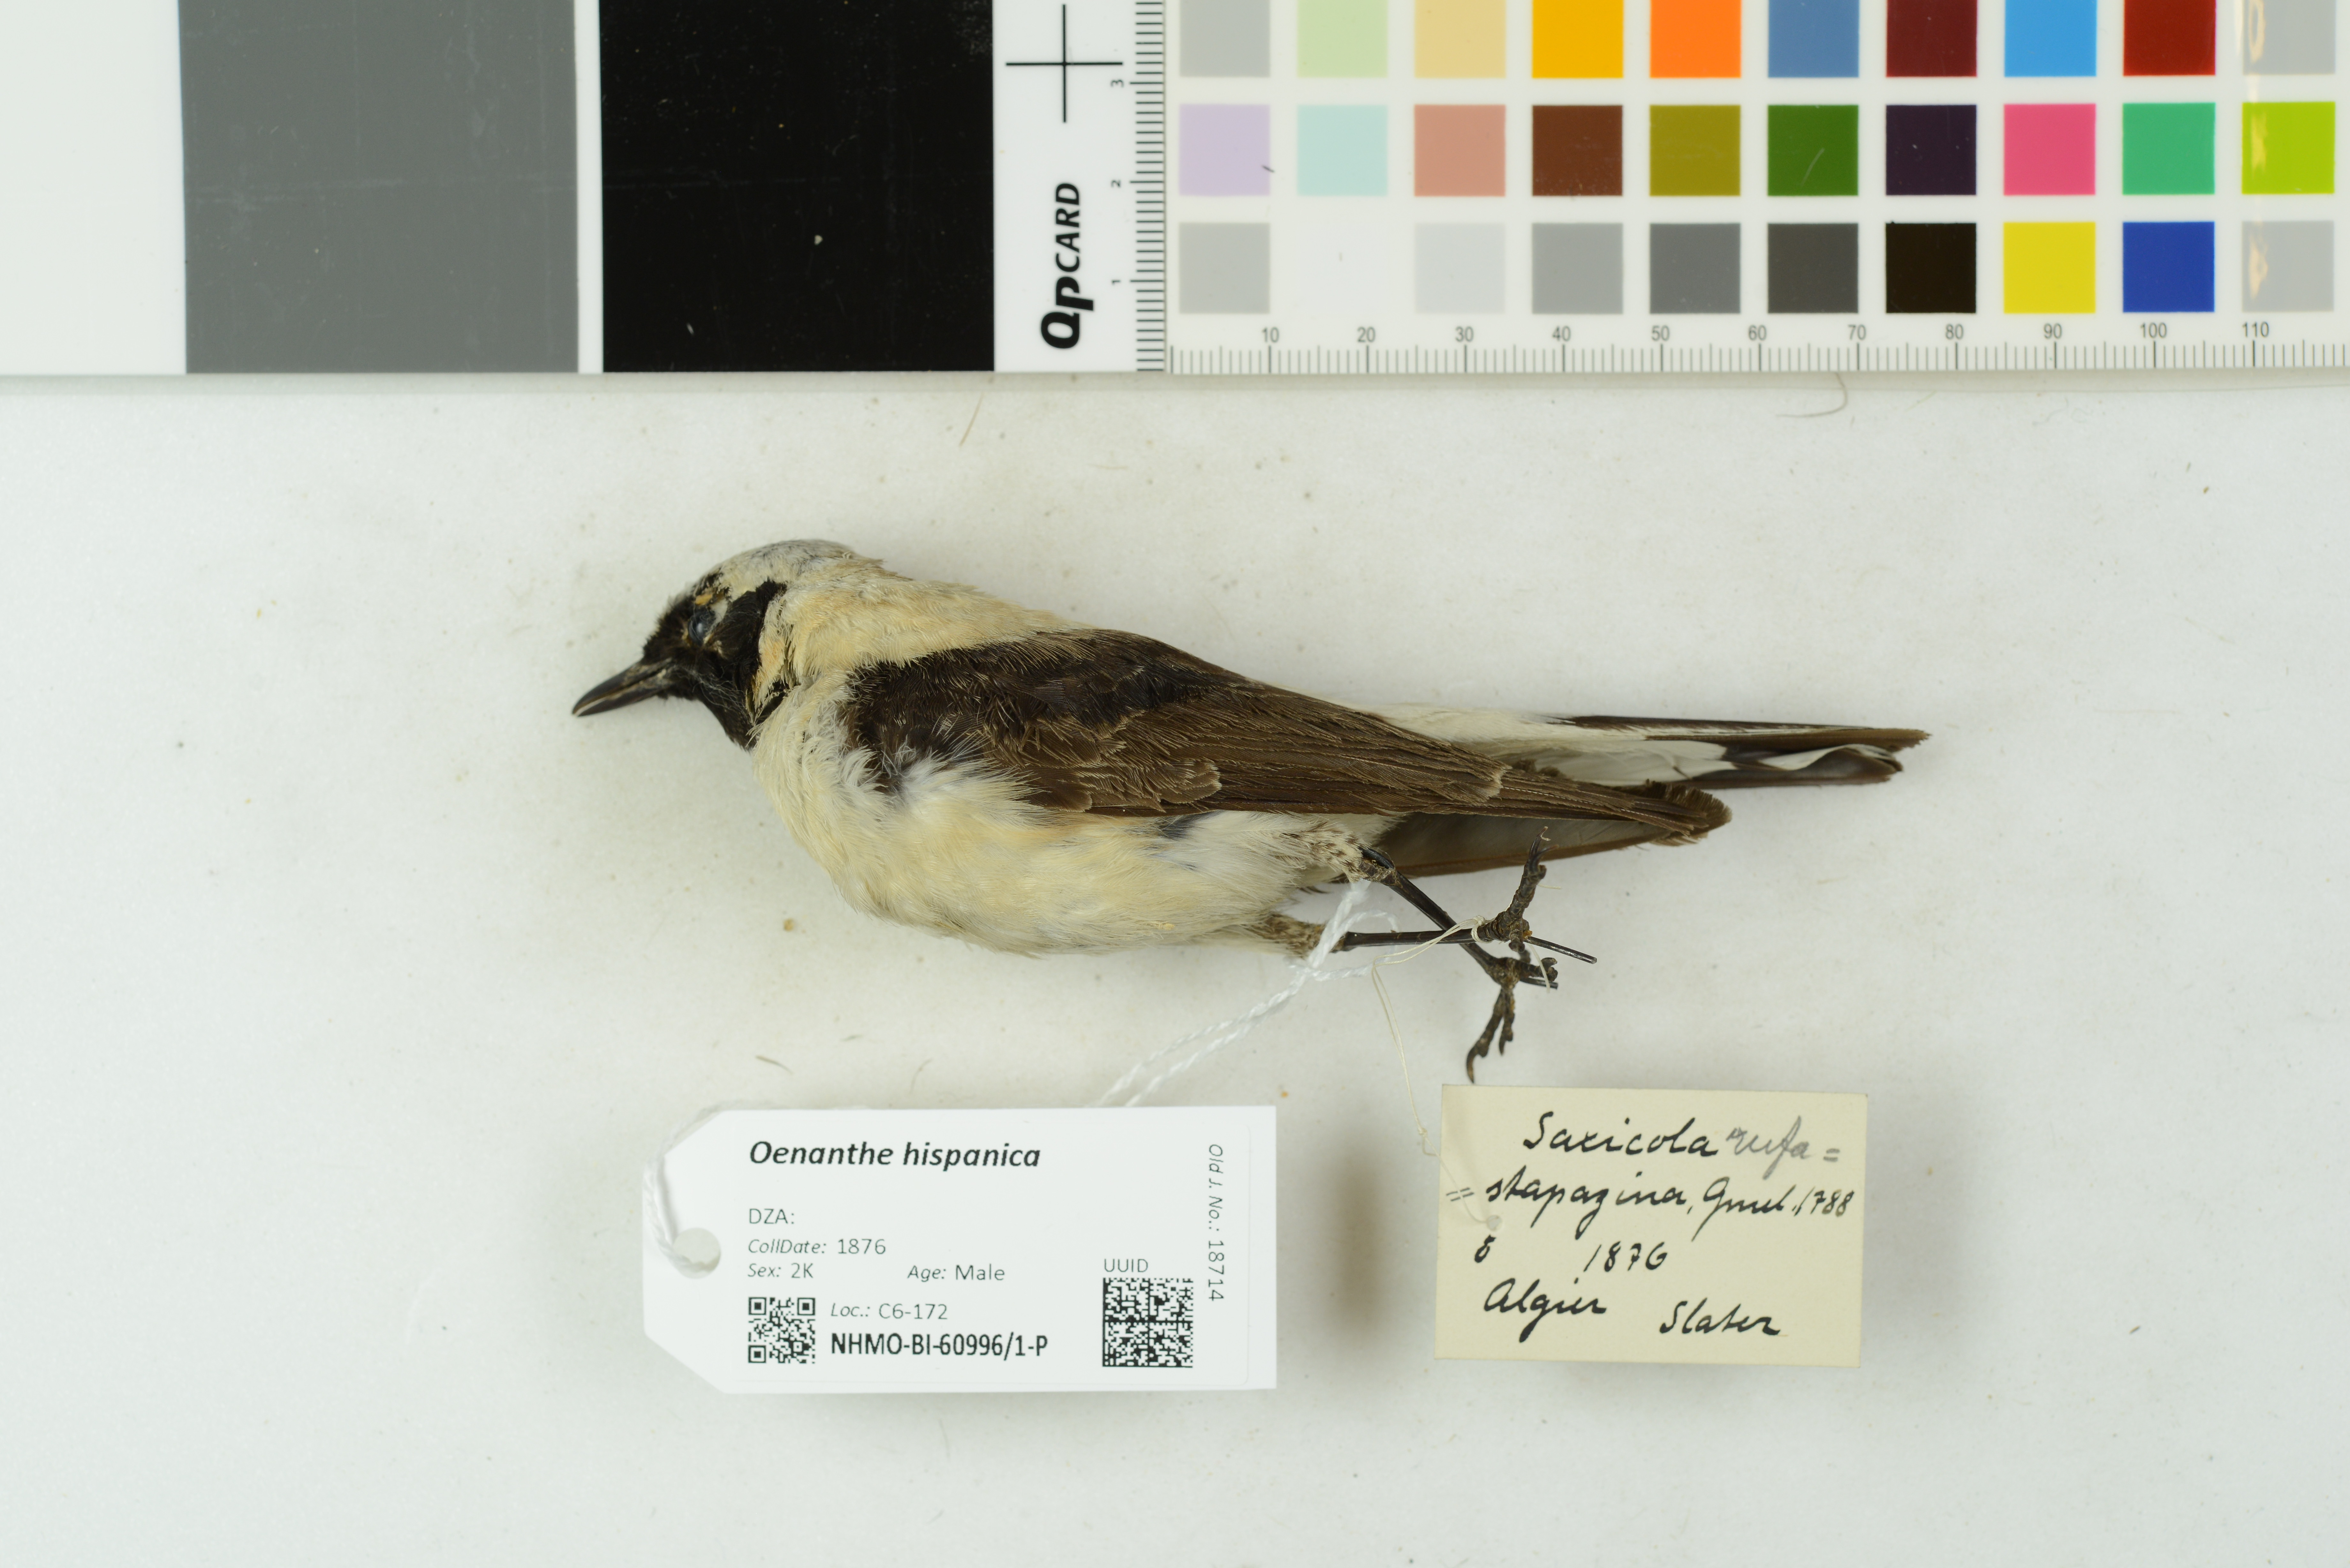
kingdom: Animalia
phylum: Chordata
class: Aves
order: Passeriformes
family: Muscicapidae
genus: Oenanthe
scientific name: Oenanthe hispanica
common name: Black-eared wheatear
